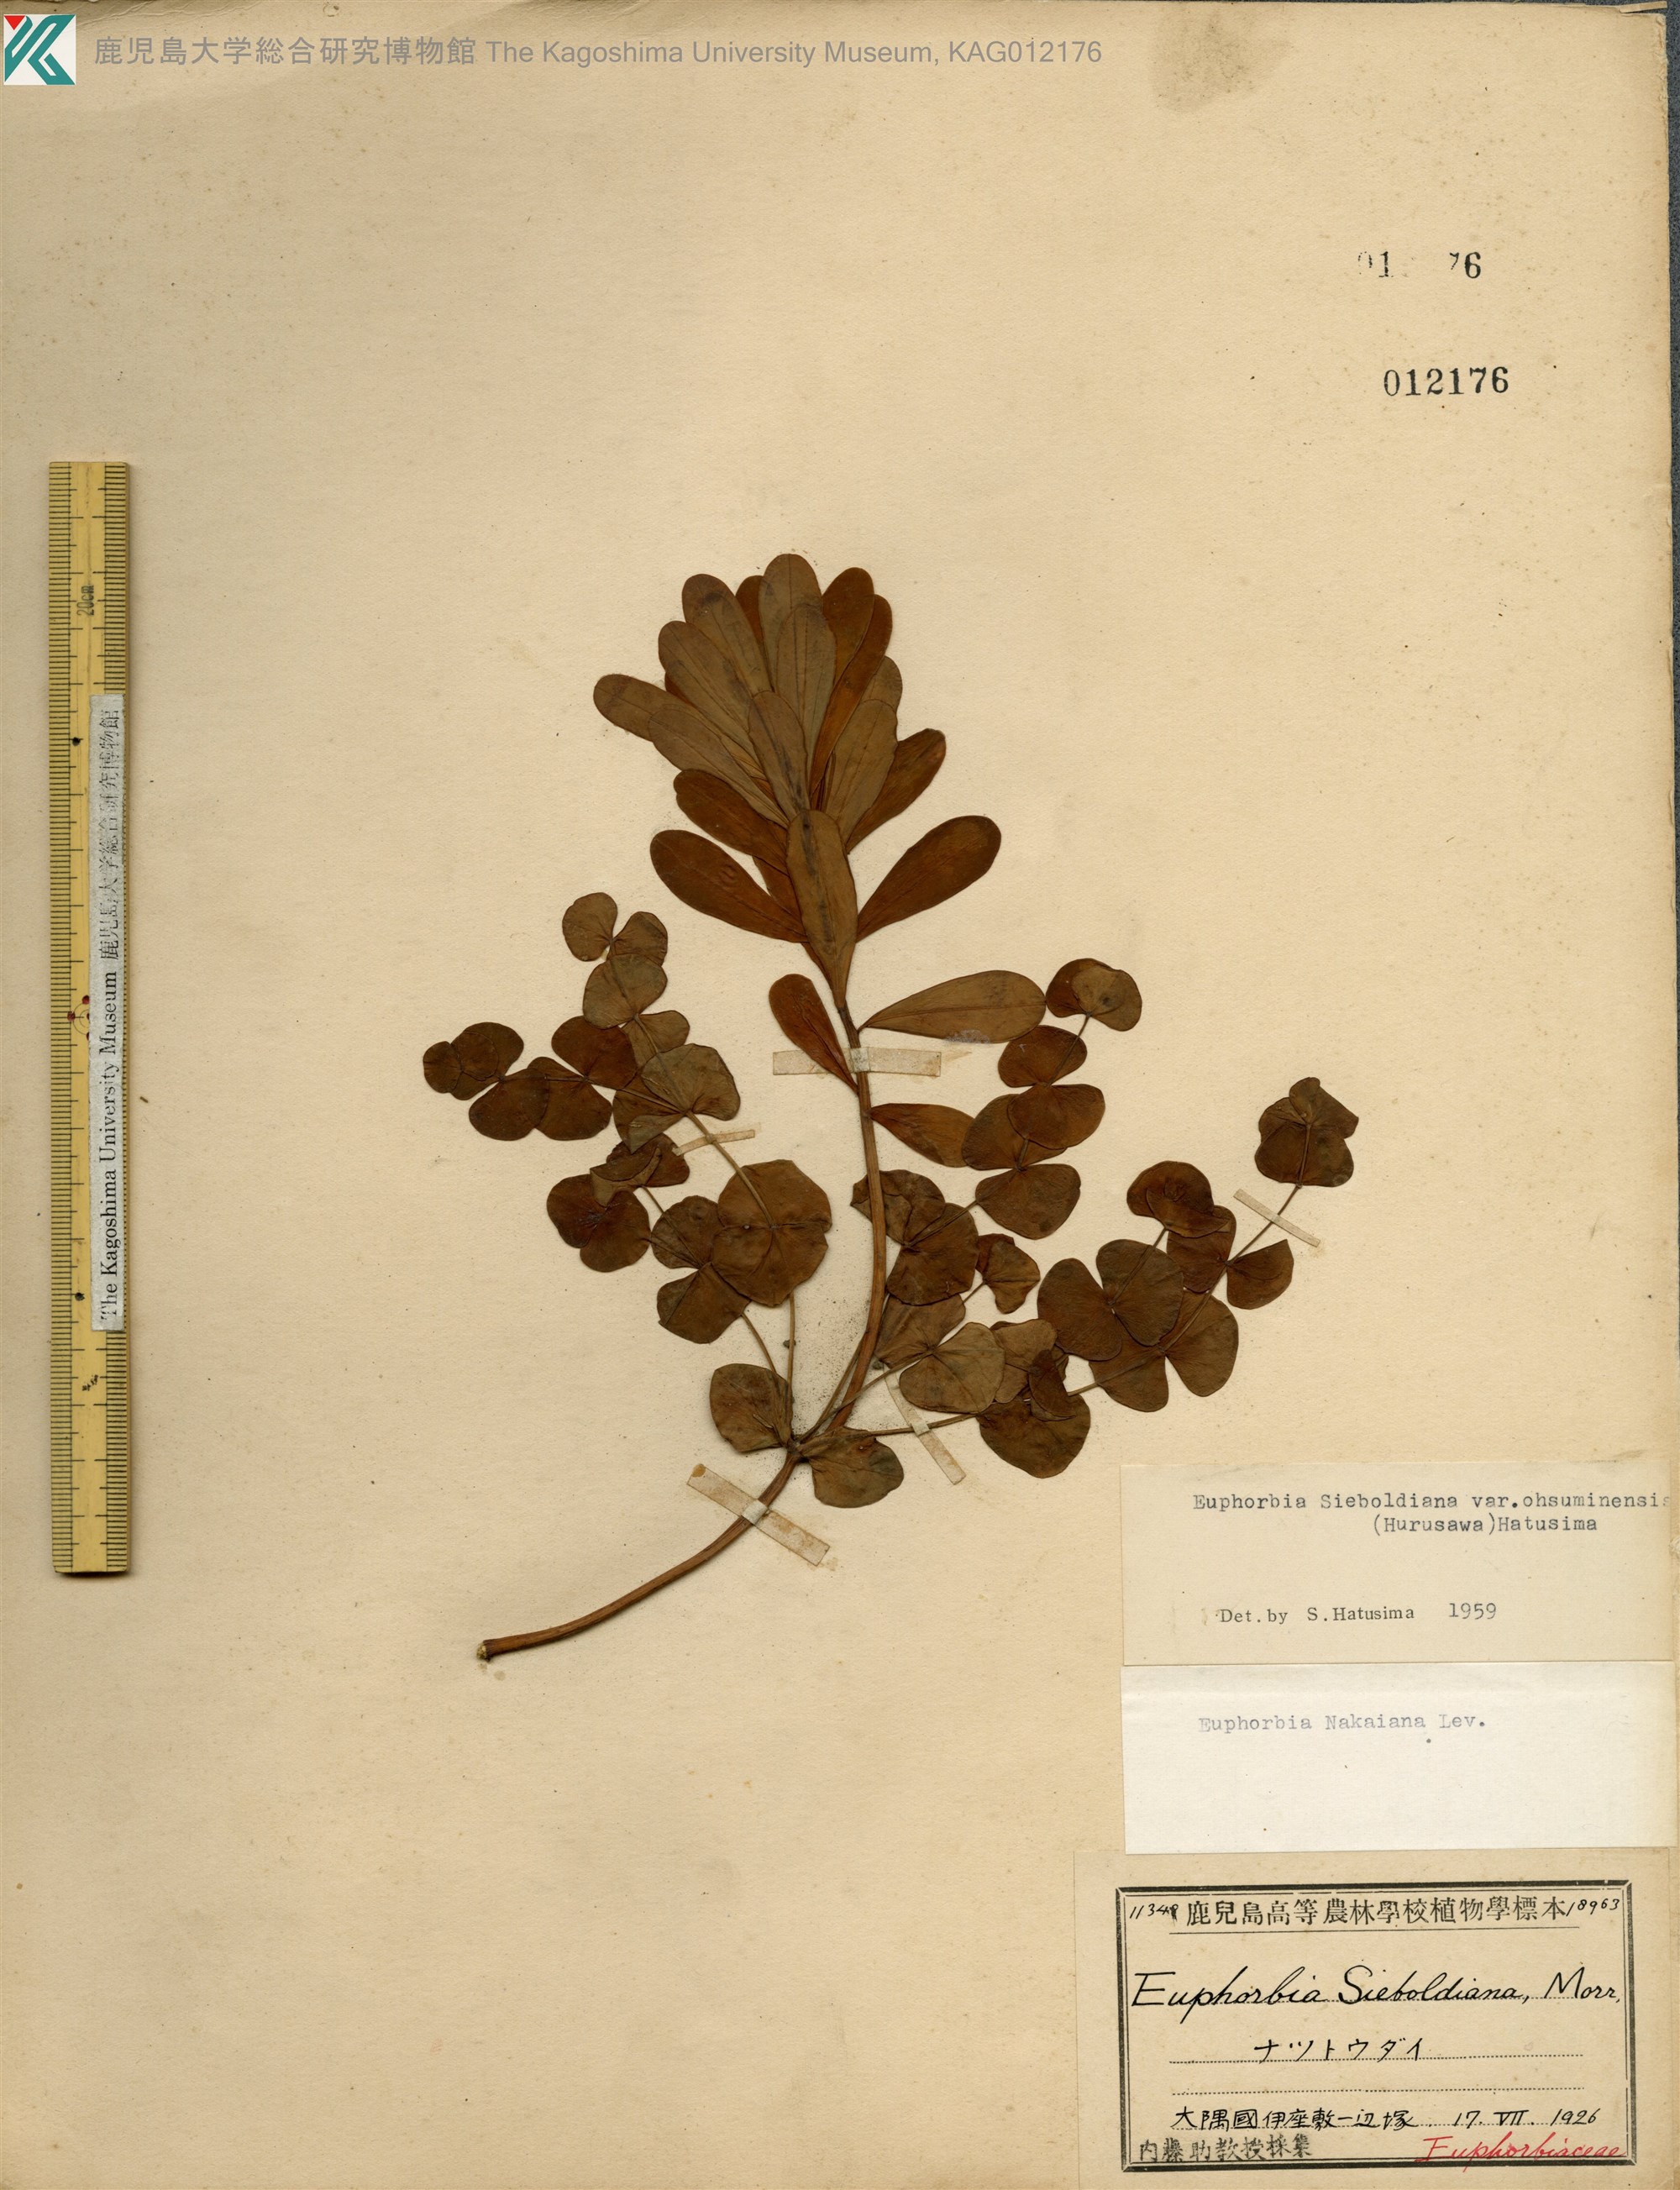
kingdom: Plantae
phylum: Tracheophyta
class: Magnoliopsida
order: Malpighiales
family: Euphorbiaceae
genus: Euphorbia
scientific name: Euphorbia sieboldiana
